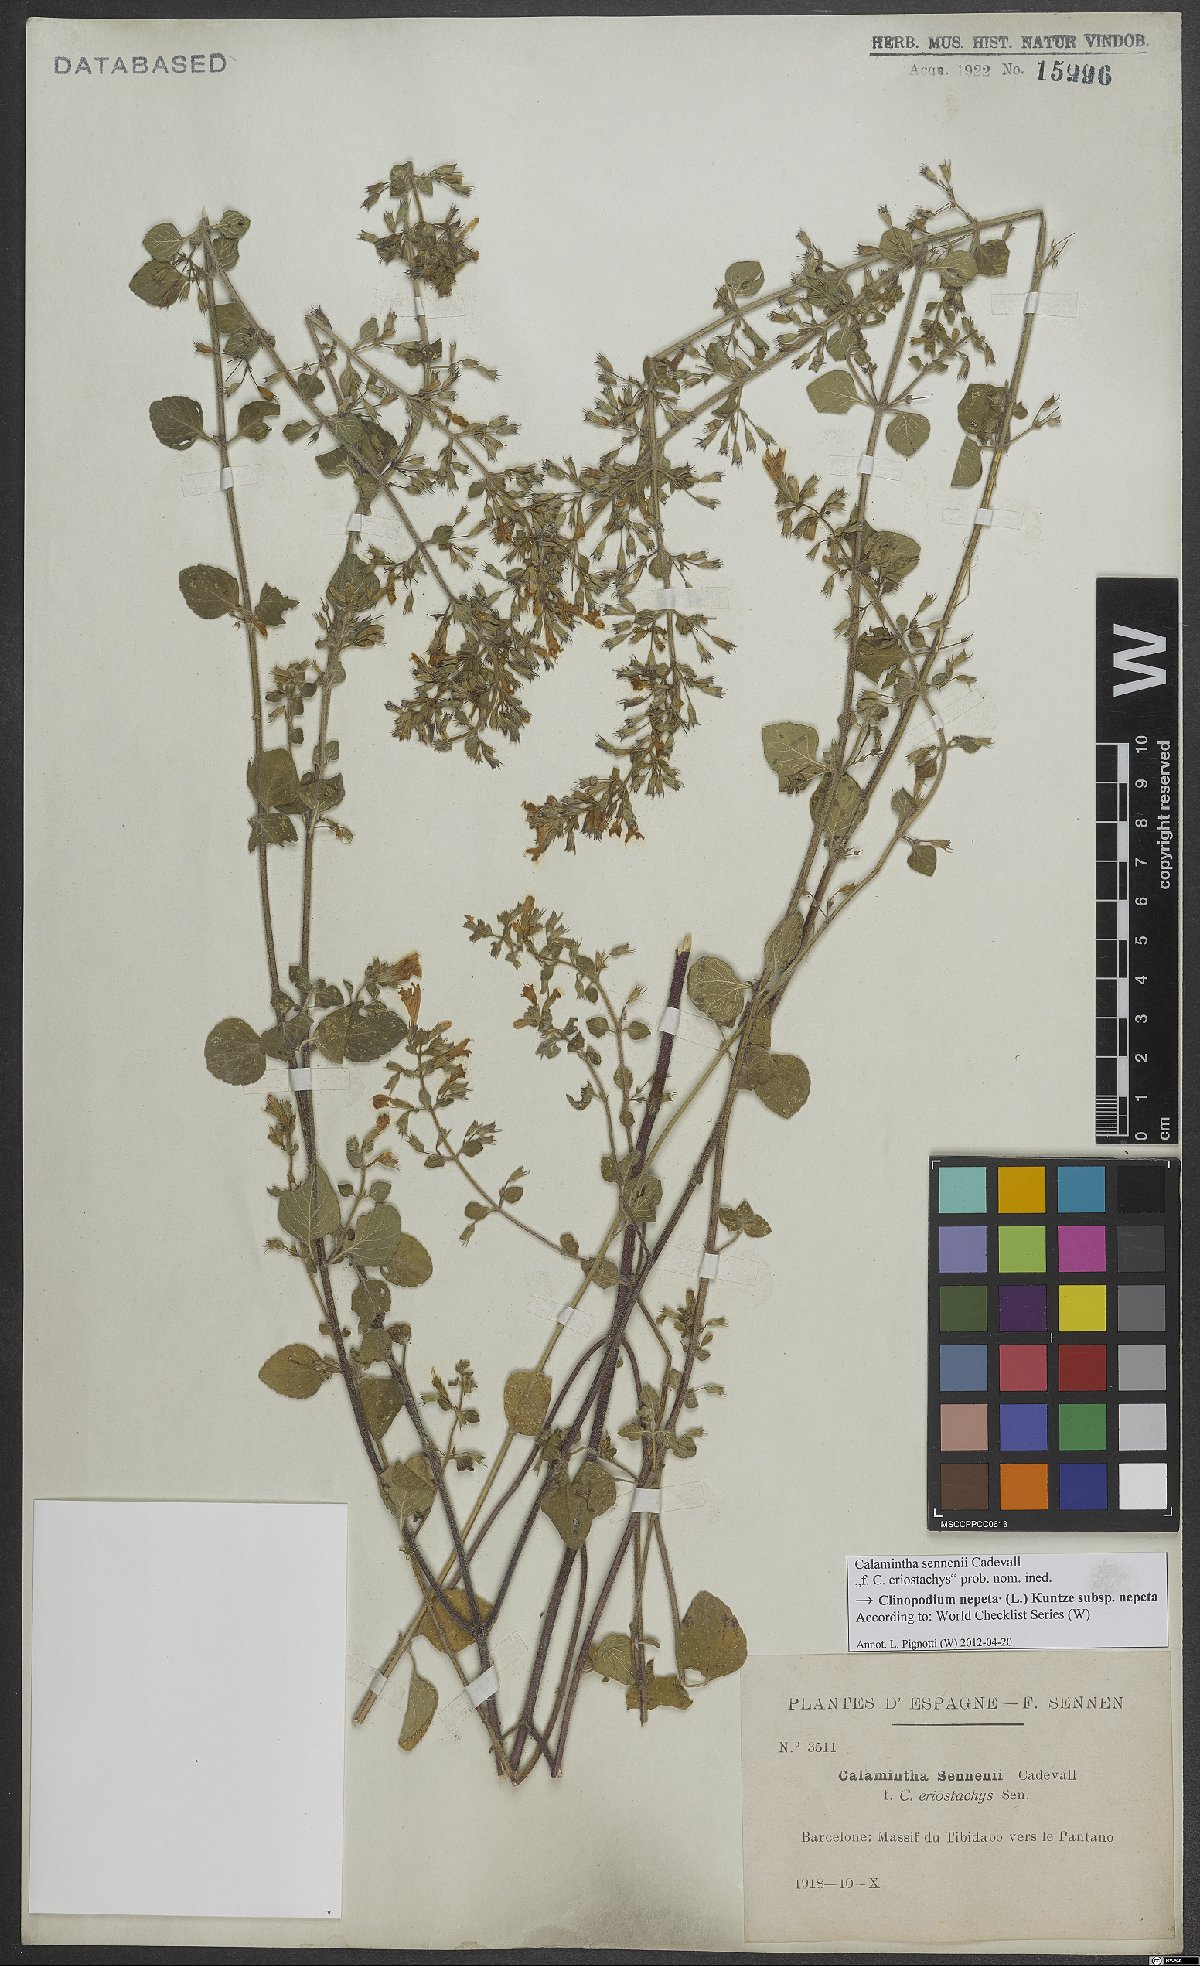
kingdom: Plantae
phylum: Tracheophyta
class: Magnoliopsida
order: Lamiales
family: Lamiaceae
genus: Clinopodium
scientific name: Clinopodium nepeta
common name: Lesser calamint
